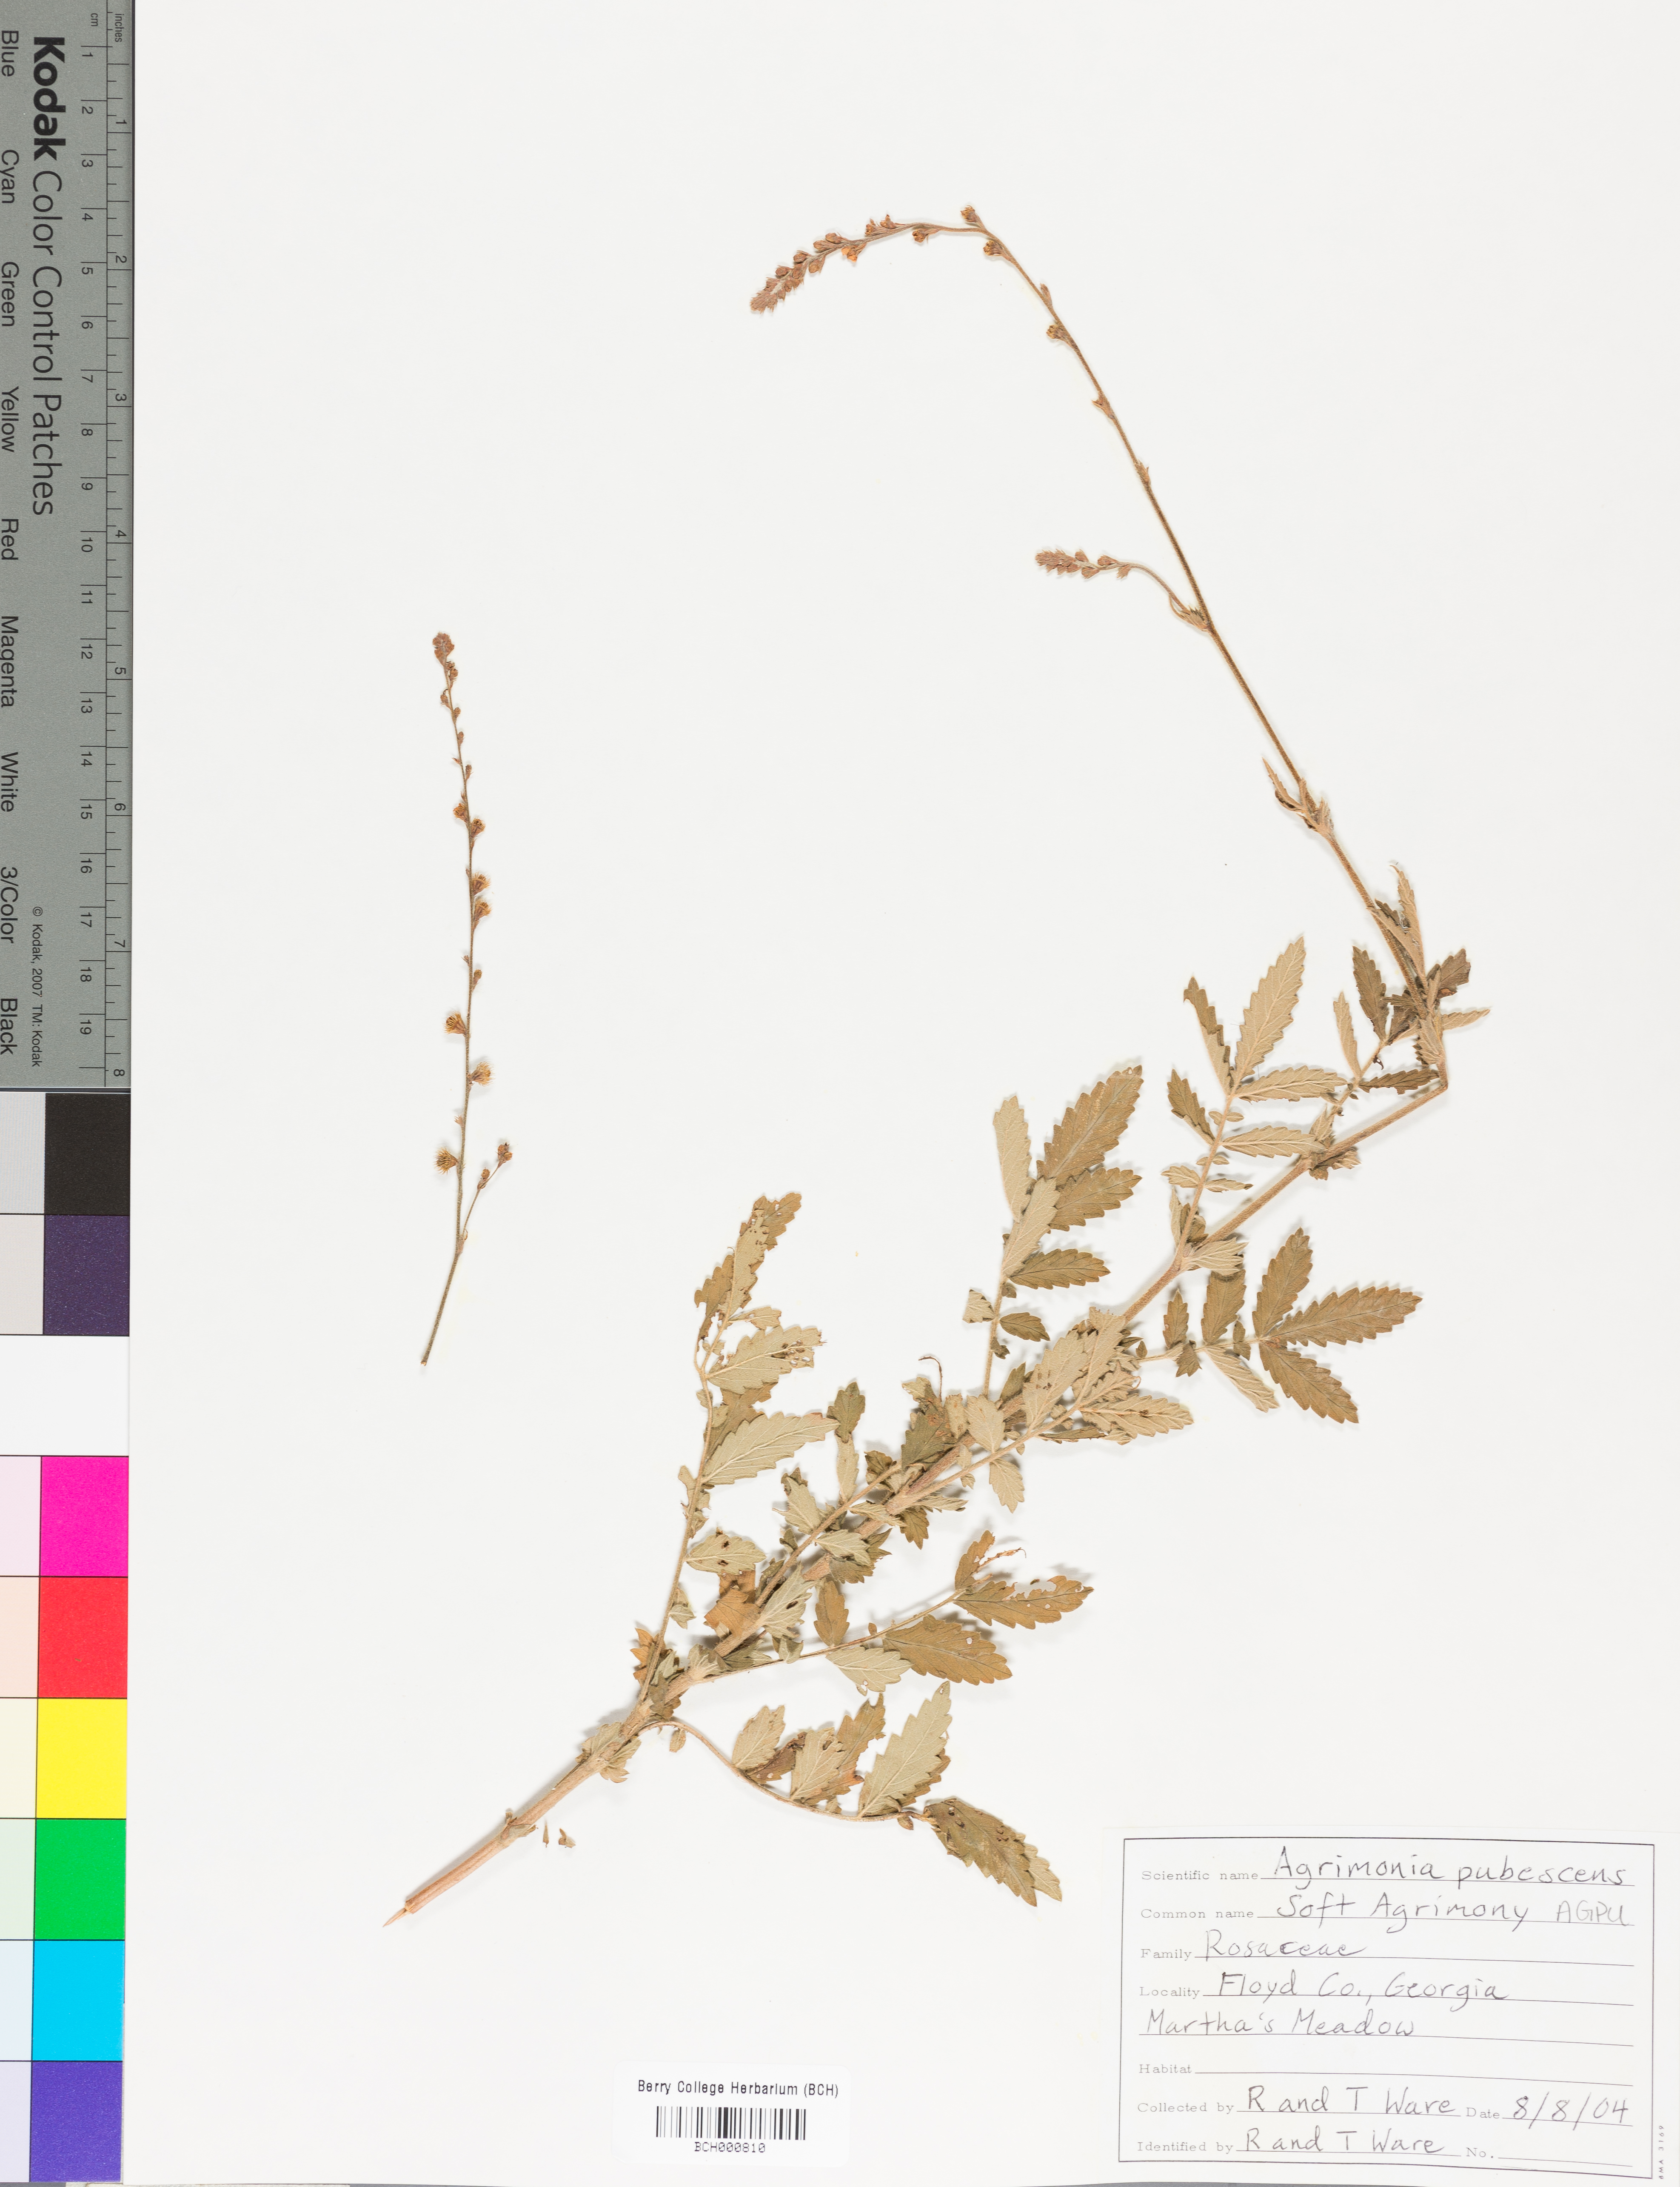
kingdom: Plantae
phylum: Tracheophyta
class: Magnoliopsida
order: Rosales
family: Rosaceae
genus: Agrimonia
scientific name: Agrimonia pubescens
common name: Downy agrimony
